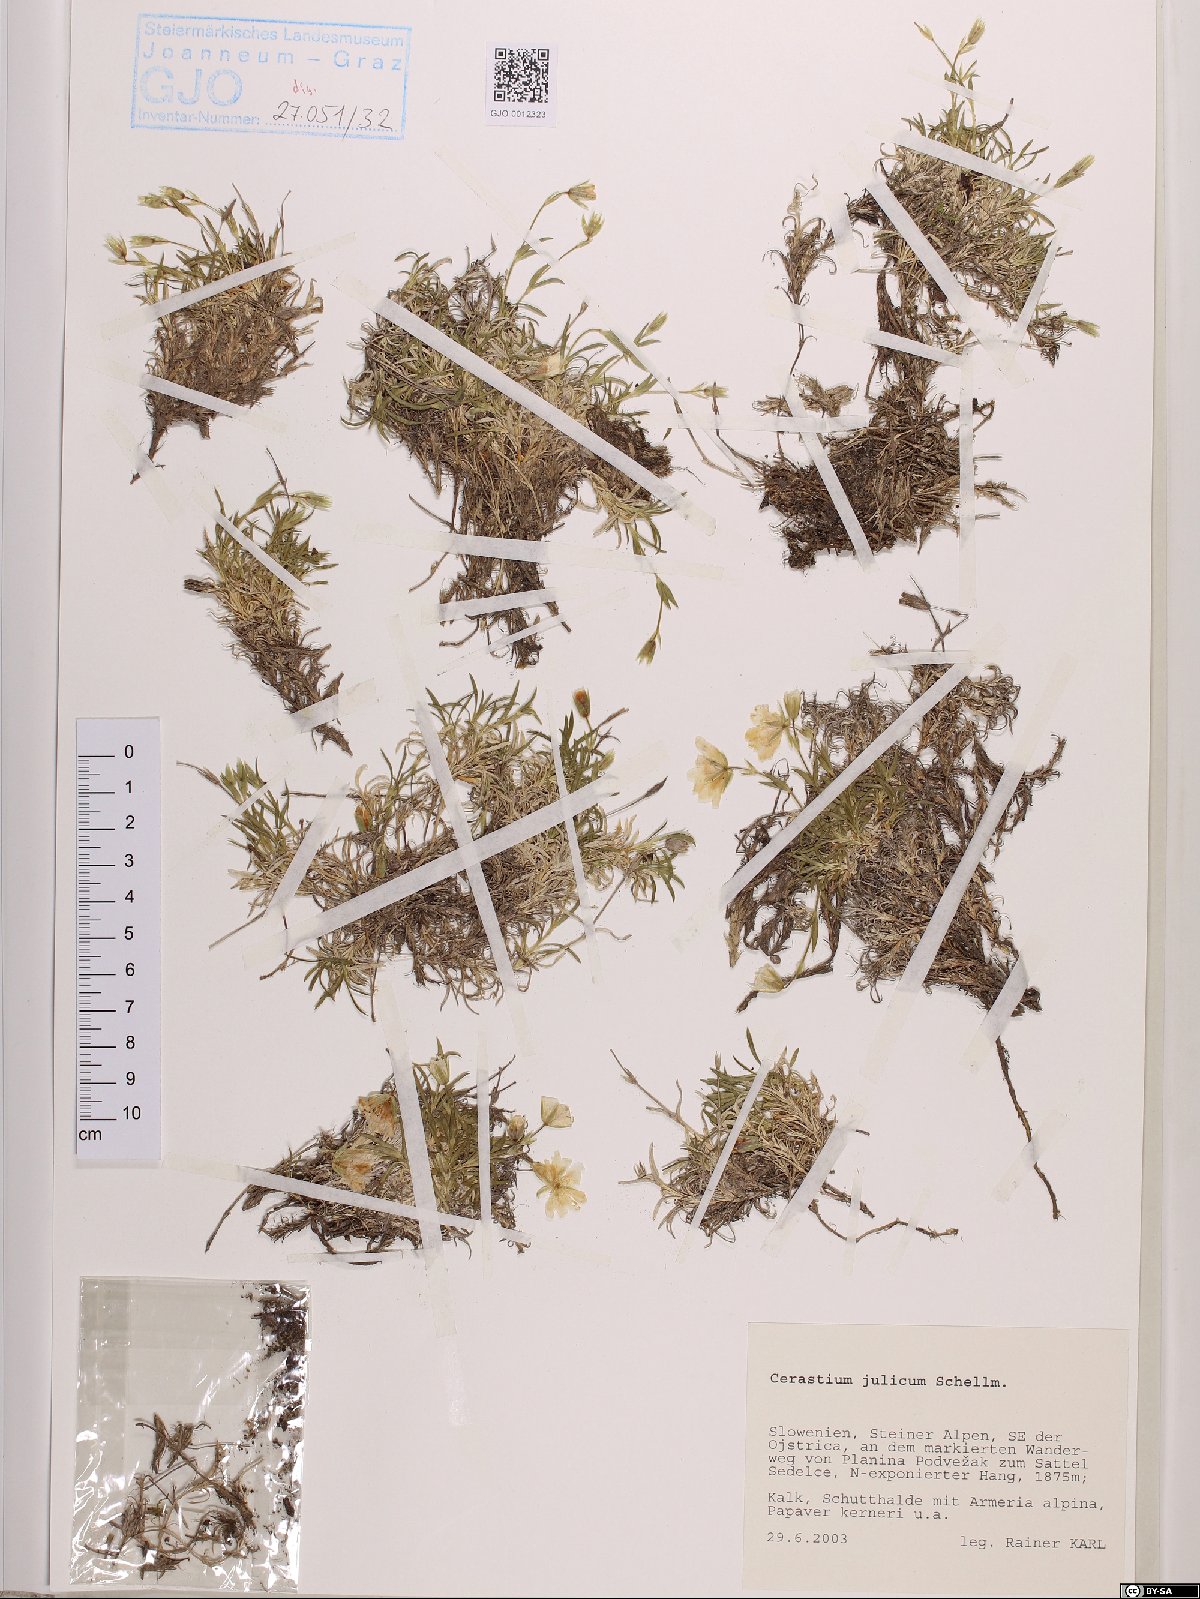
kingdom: Plantae
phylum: Tracheophyta
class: Magnoliopsida
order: Caryophyllales
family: Caryophyllaceae
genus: Cerastium
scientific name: Cerastium julicum
